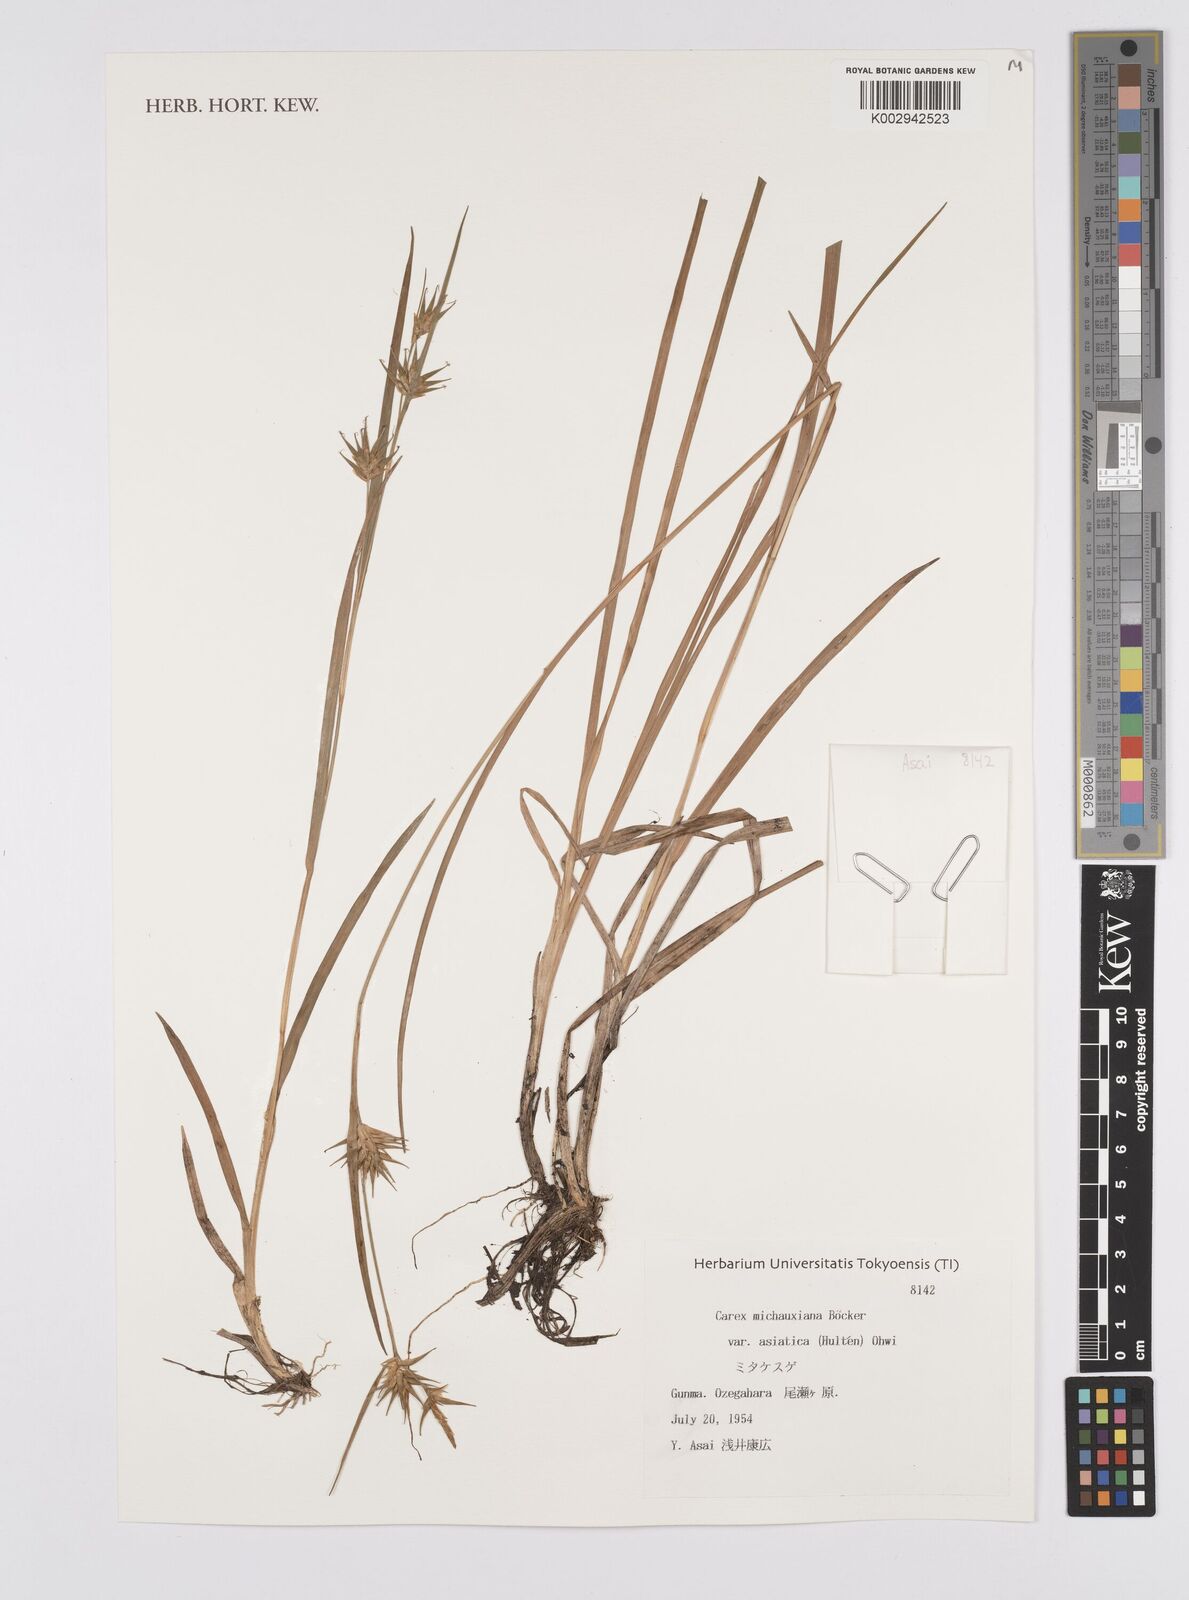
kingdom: Plantae
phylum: Tracheophyta
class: Liliopsida
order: Poales
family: Cyperaceae
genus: Carex
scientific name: Carex michauxiana
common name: Michaux's sedge
